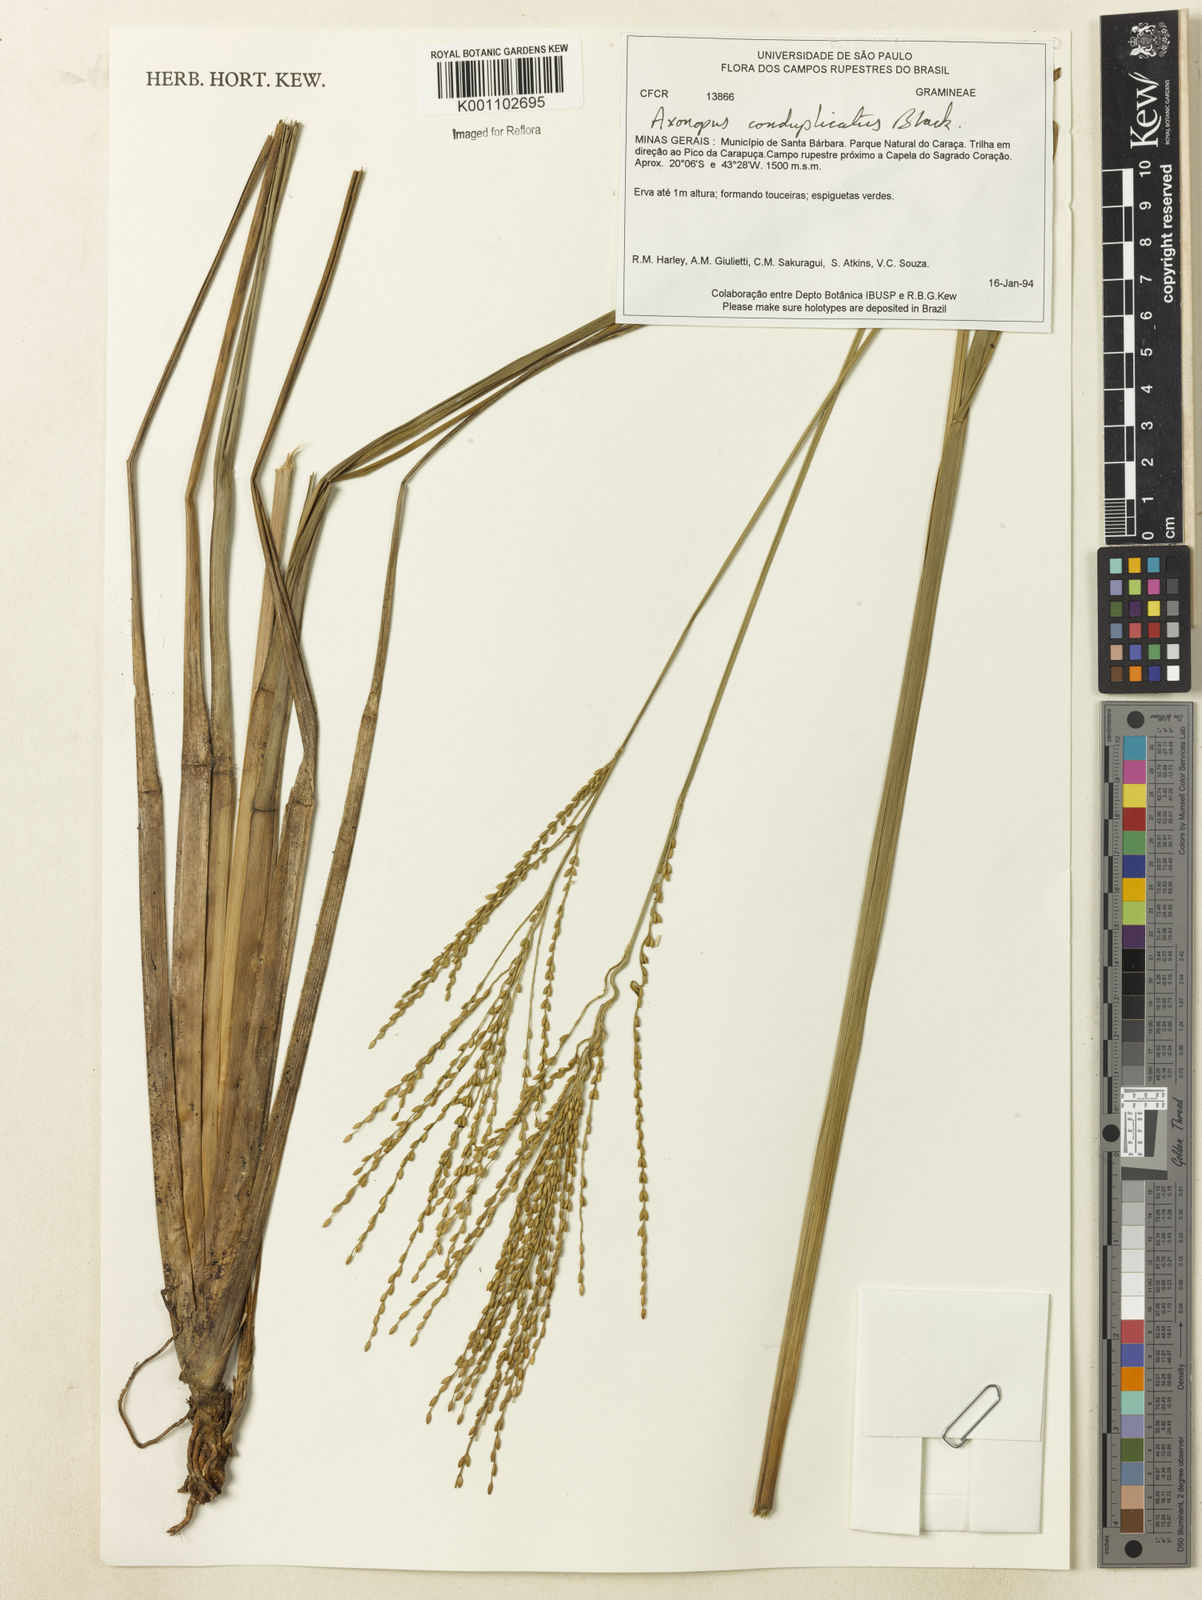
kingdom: Plantae
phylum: Tracheophyta
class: Liliopsida
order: Poales
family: Poaceae
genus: Axonopus
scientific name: Axonopus laxiflorus
